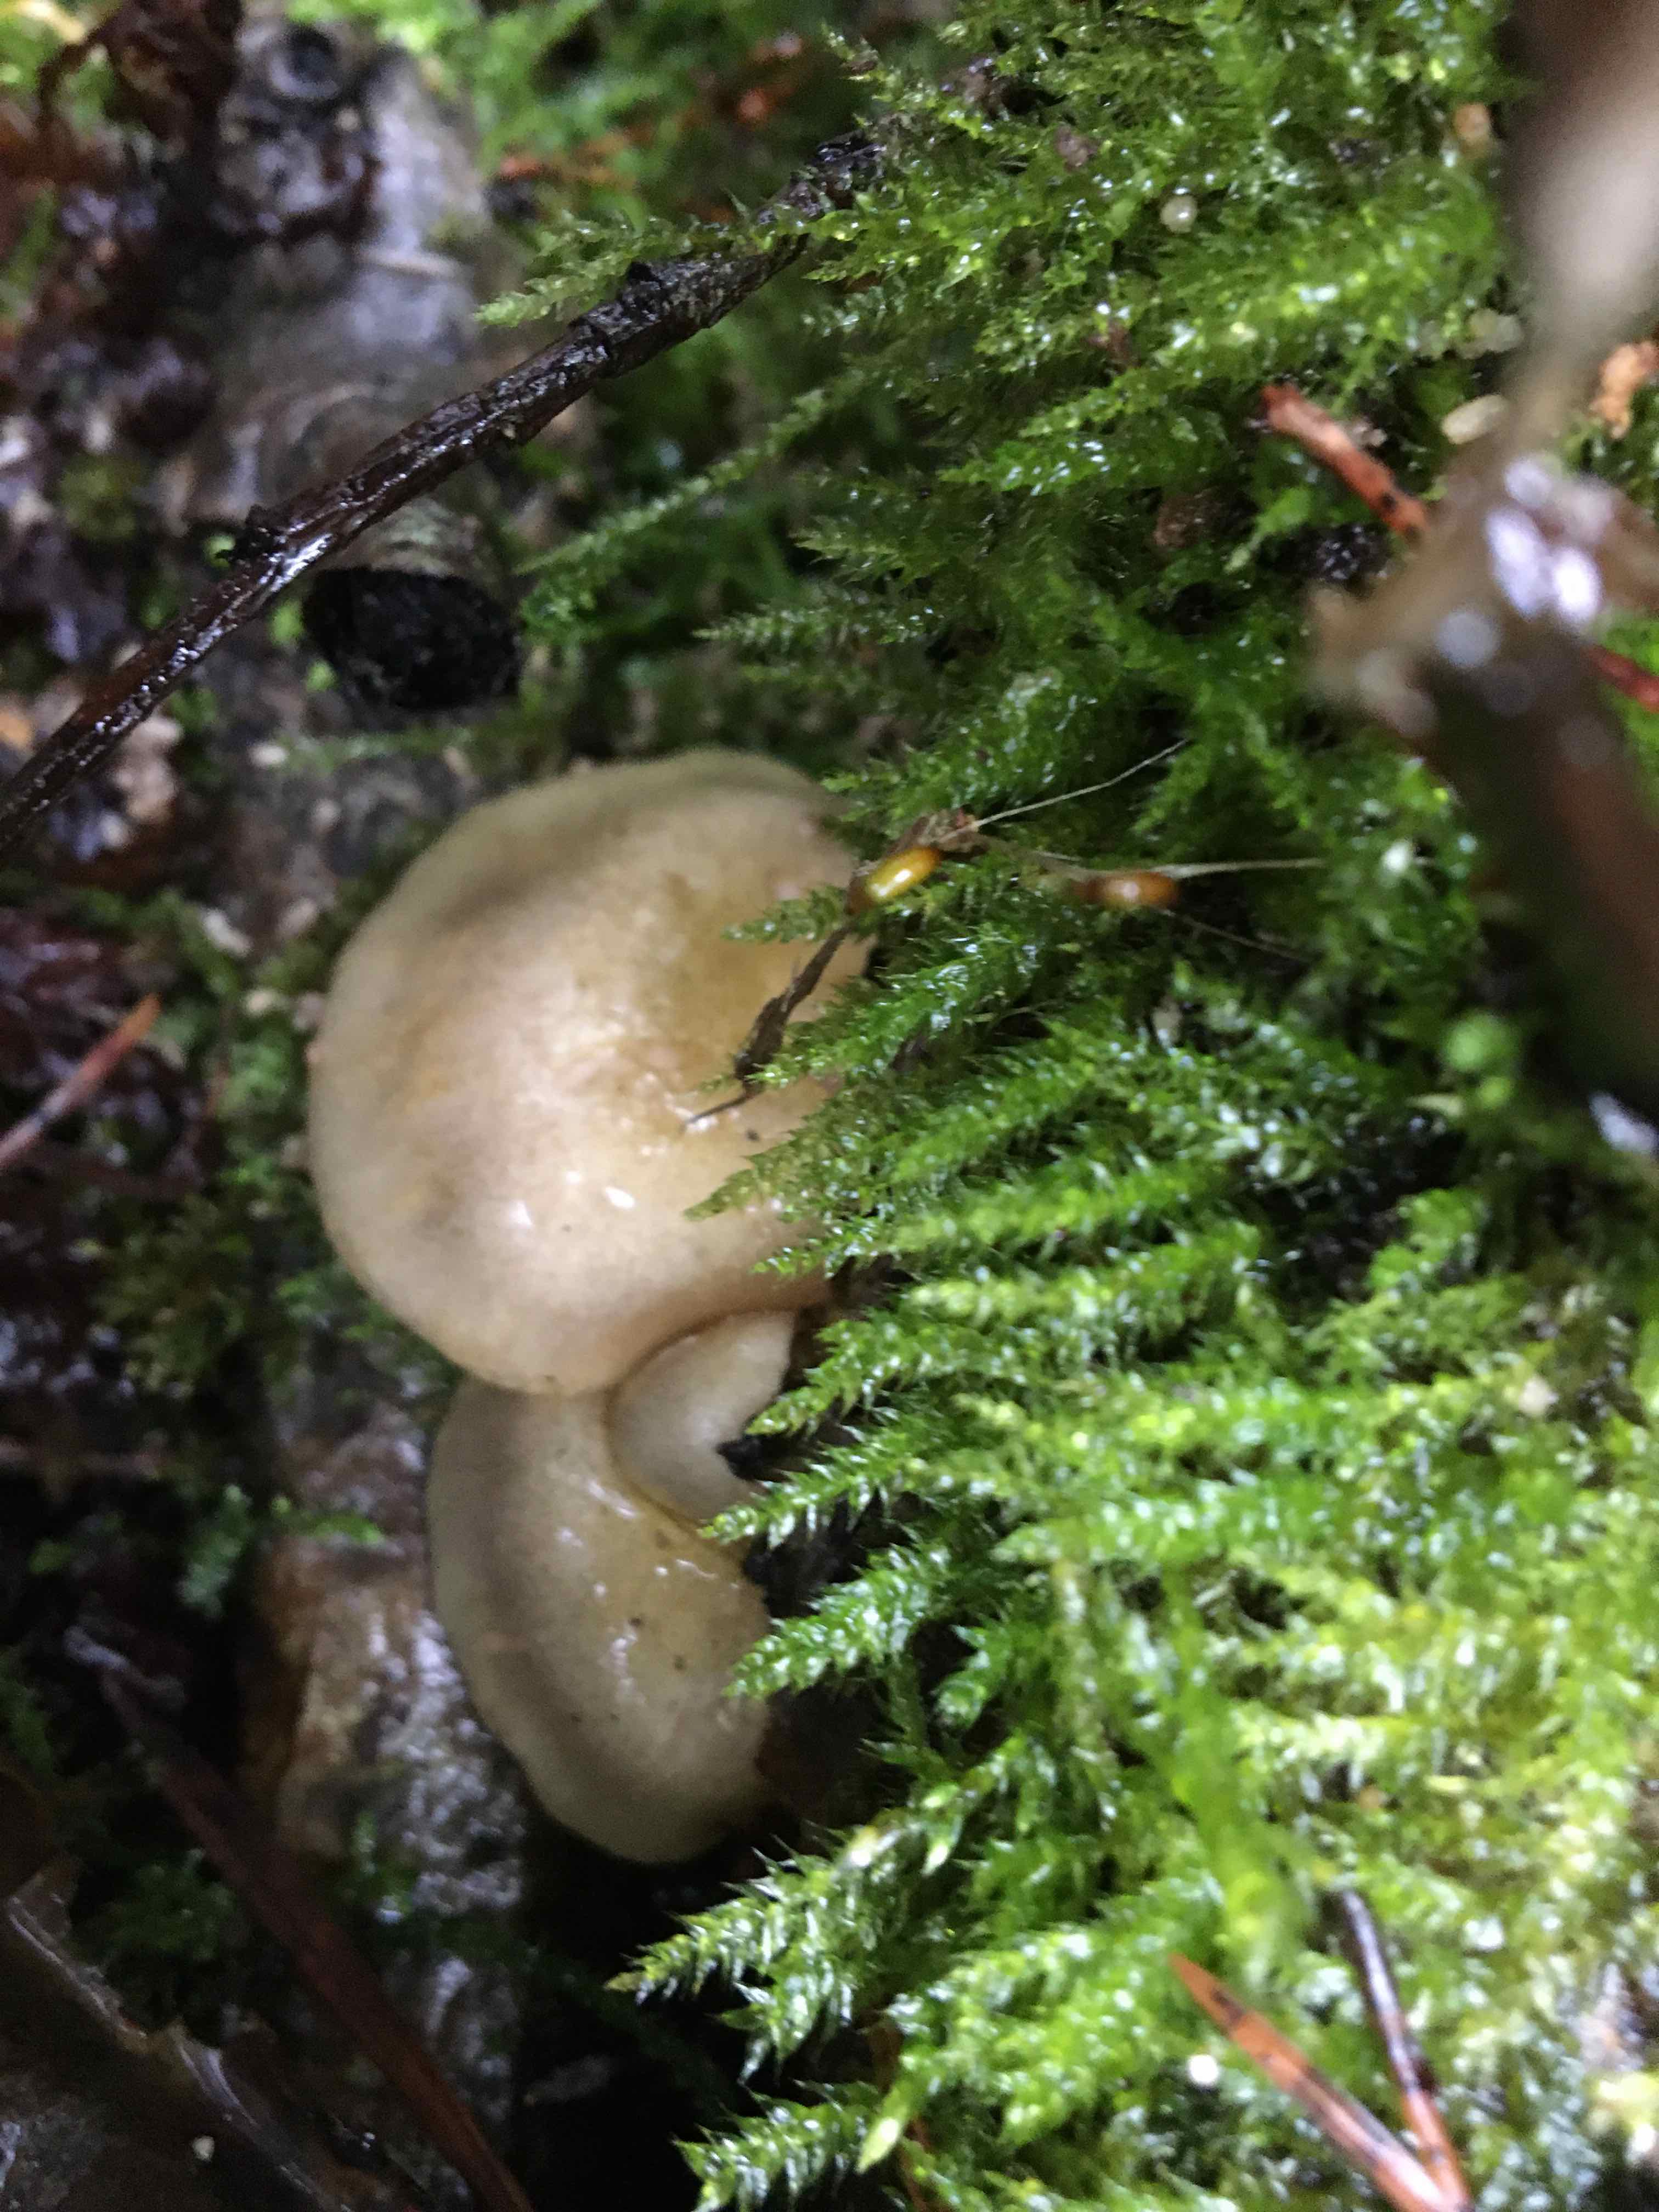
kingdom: Fungi
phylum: Basidiomycota
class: Agaricomycetes
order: Agaricales
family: Sarcomyxaceae
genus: Sarcomyxa
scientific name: Sarcomyxa serotina
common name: gummihat
